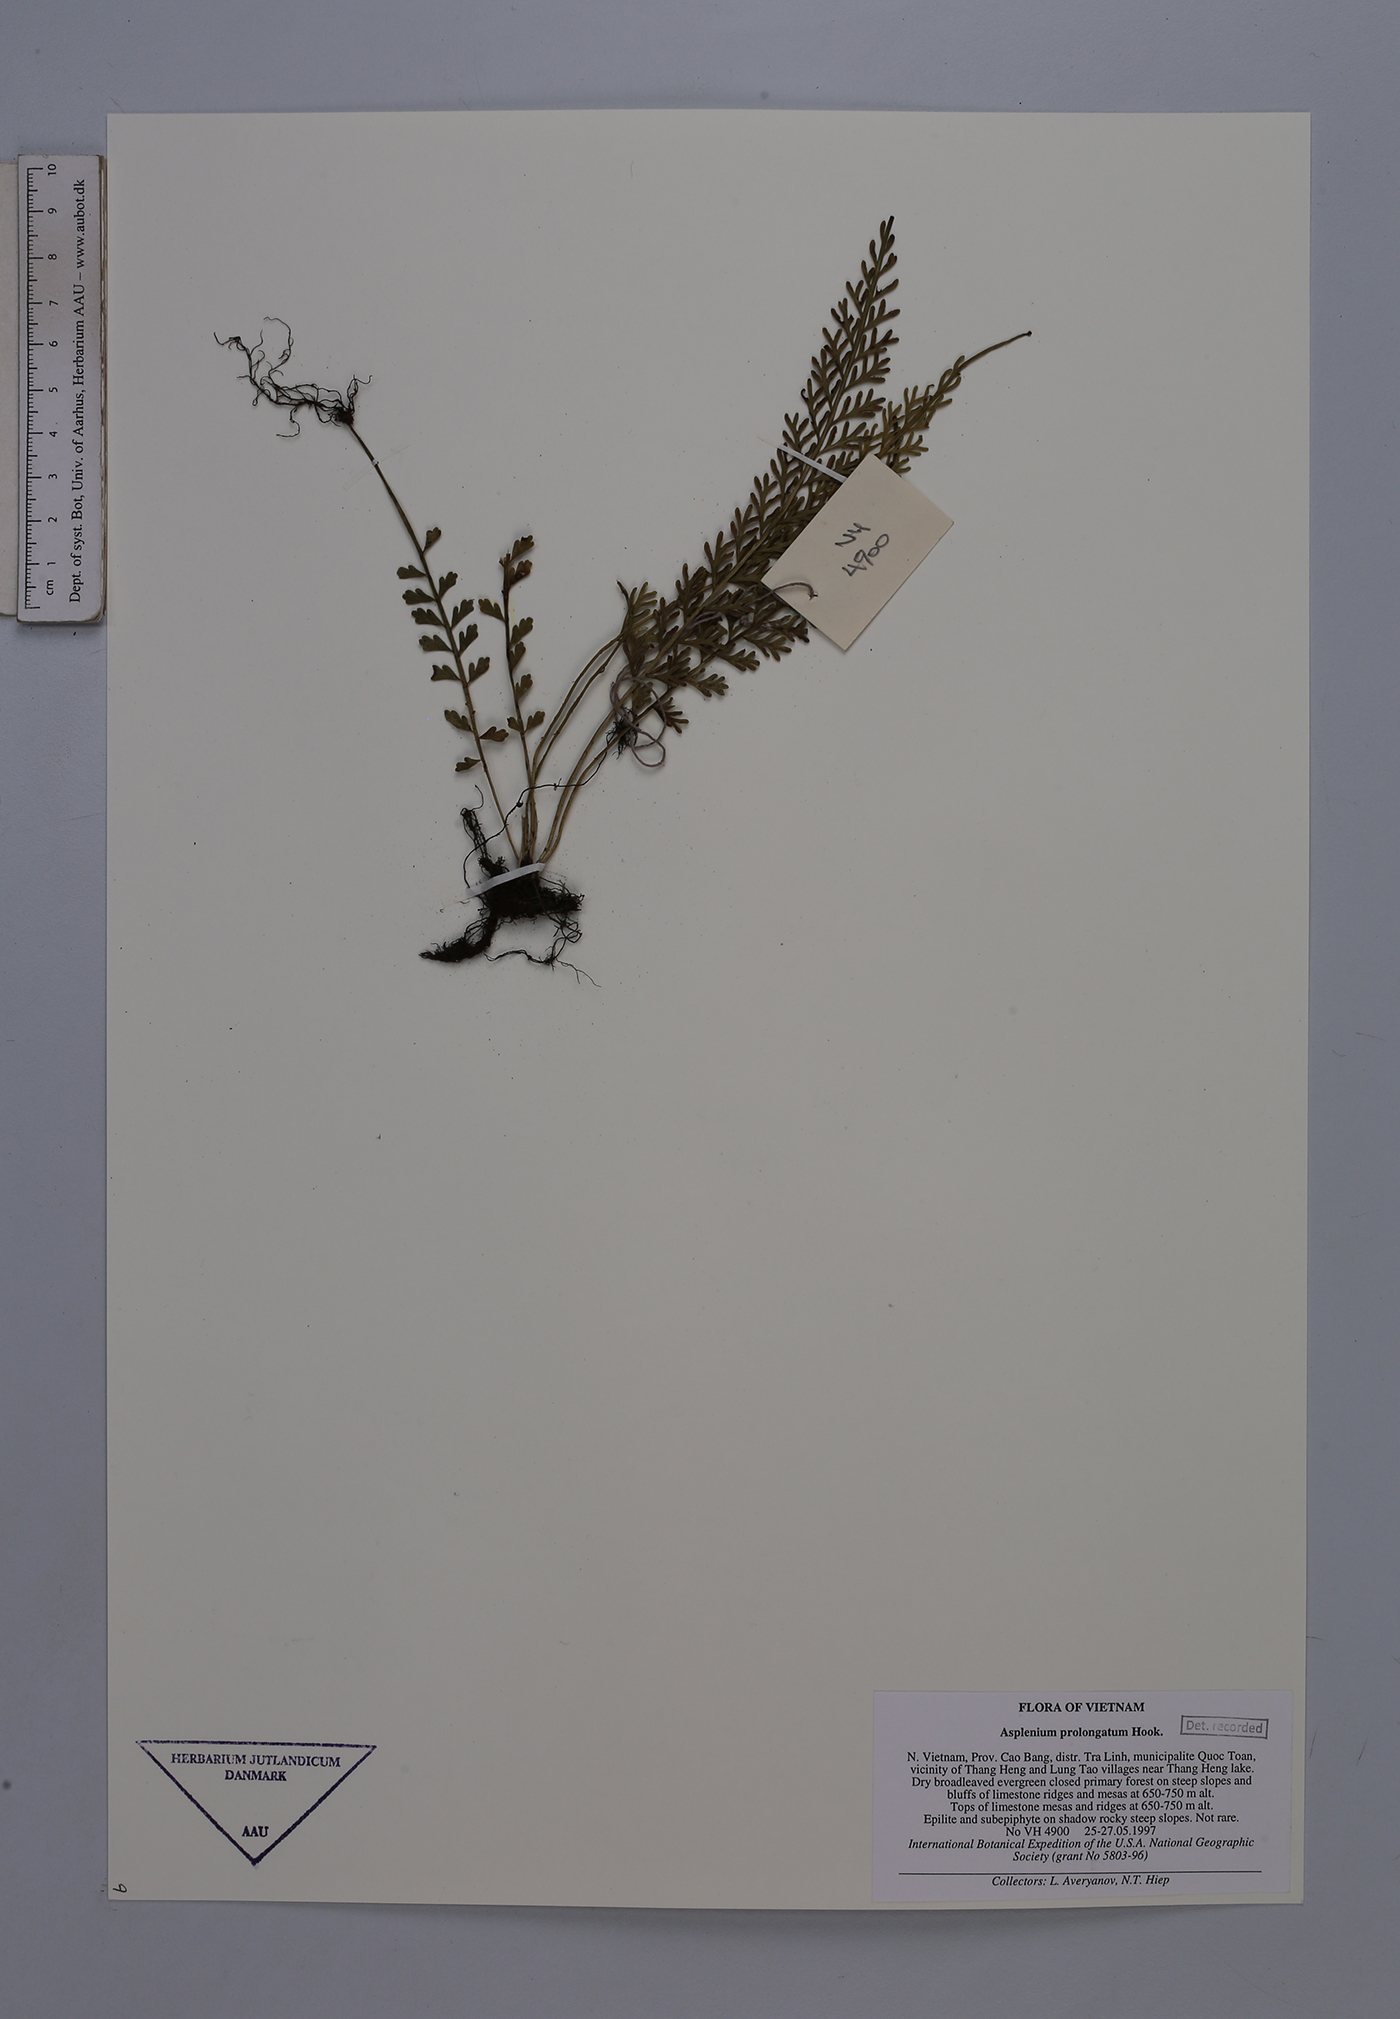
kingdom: Plantae
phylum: Tracheophyta
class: Polypodiopsida
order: Polypodiales
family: Aspleniaceae
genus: Asplenium
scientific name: Asplenium prolongatum
